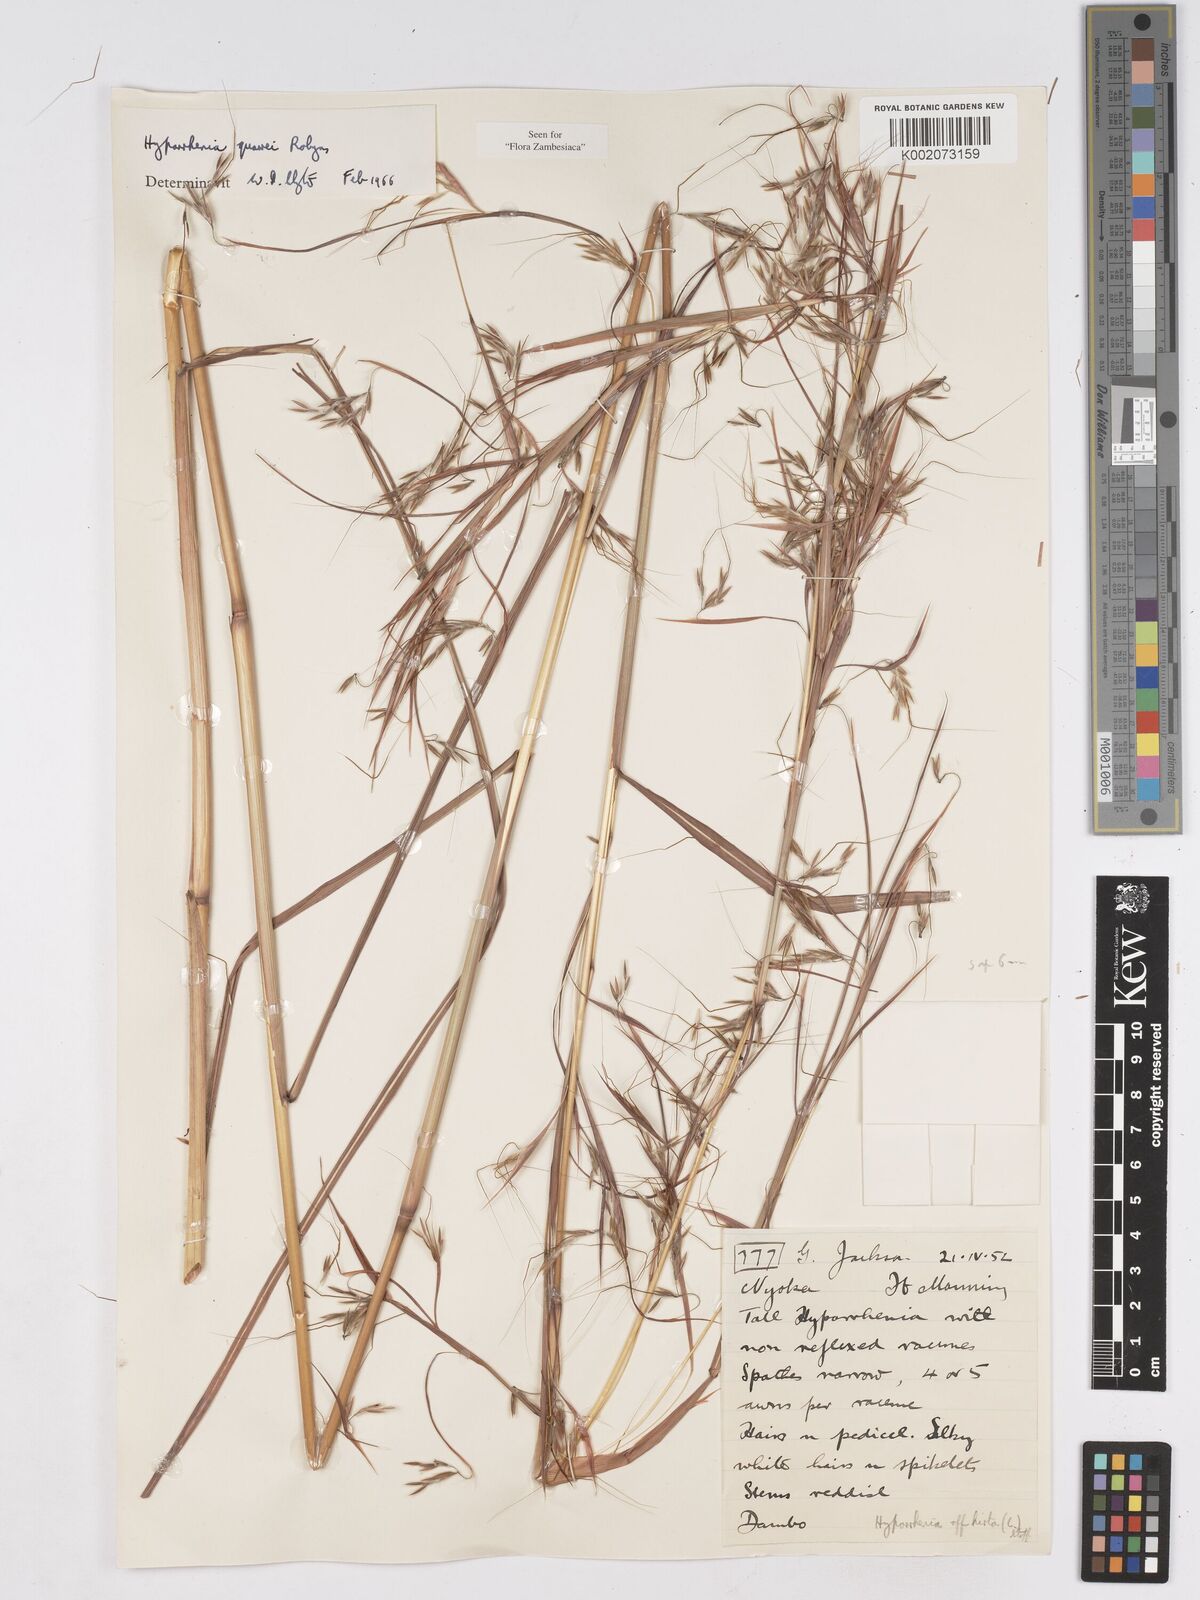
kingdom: Plantae
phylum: Tracheophyta
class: Liliopsida
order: Poales
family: Poaceae
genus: Hyparrhenia
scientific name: Hyparrhenia quarrei
